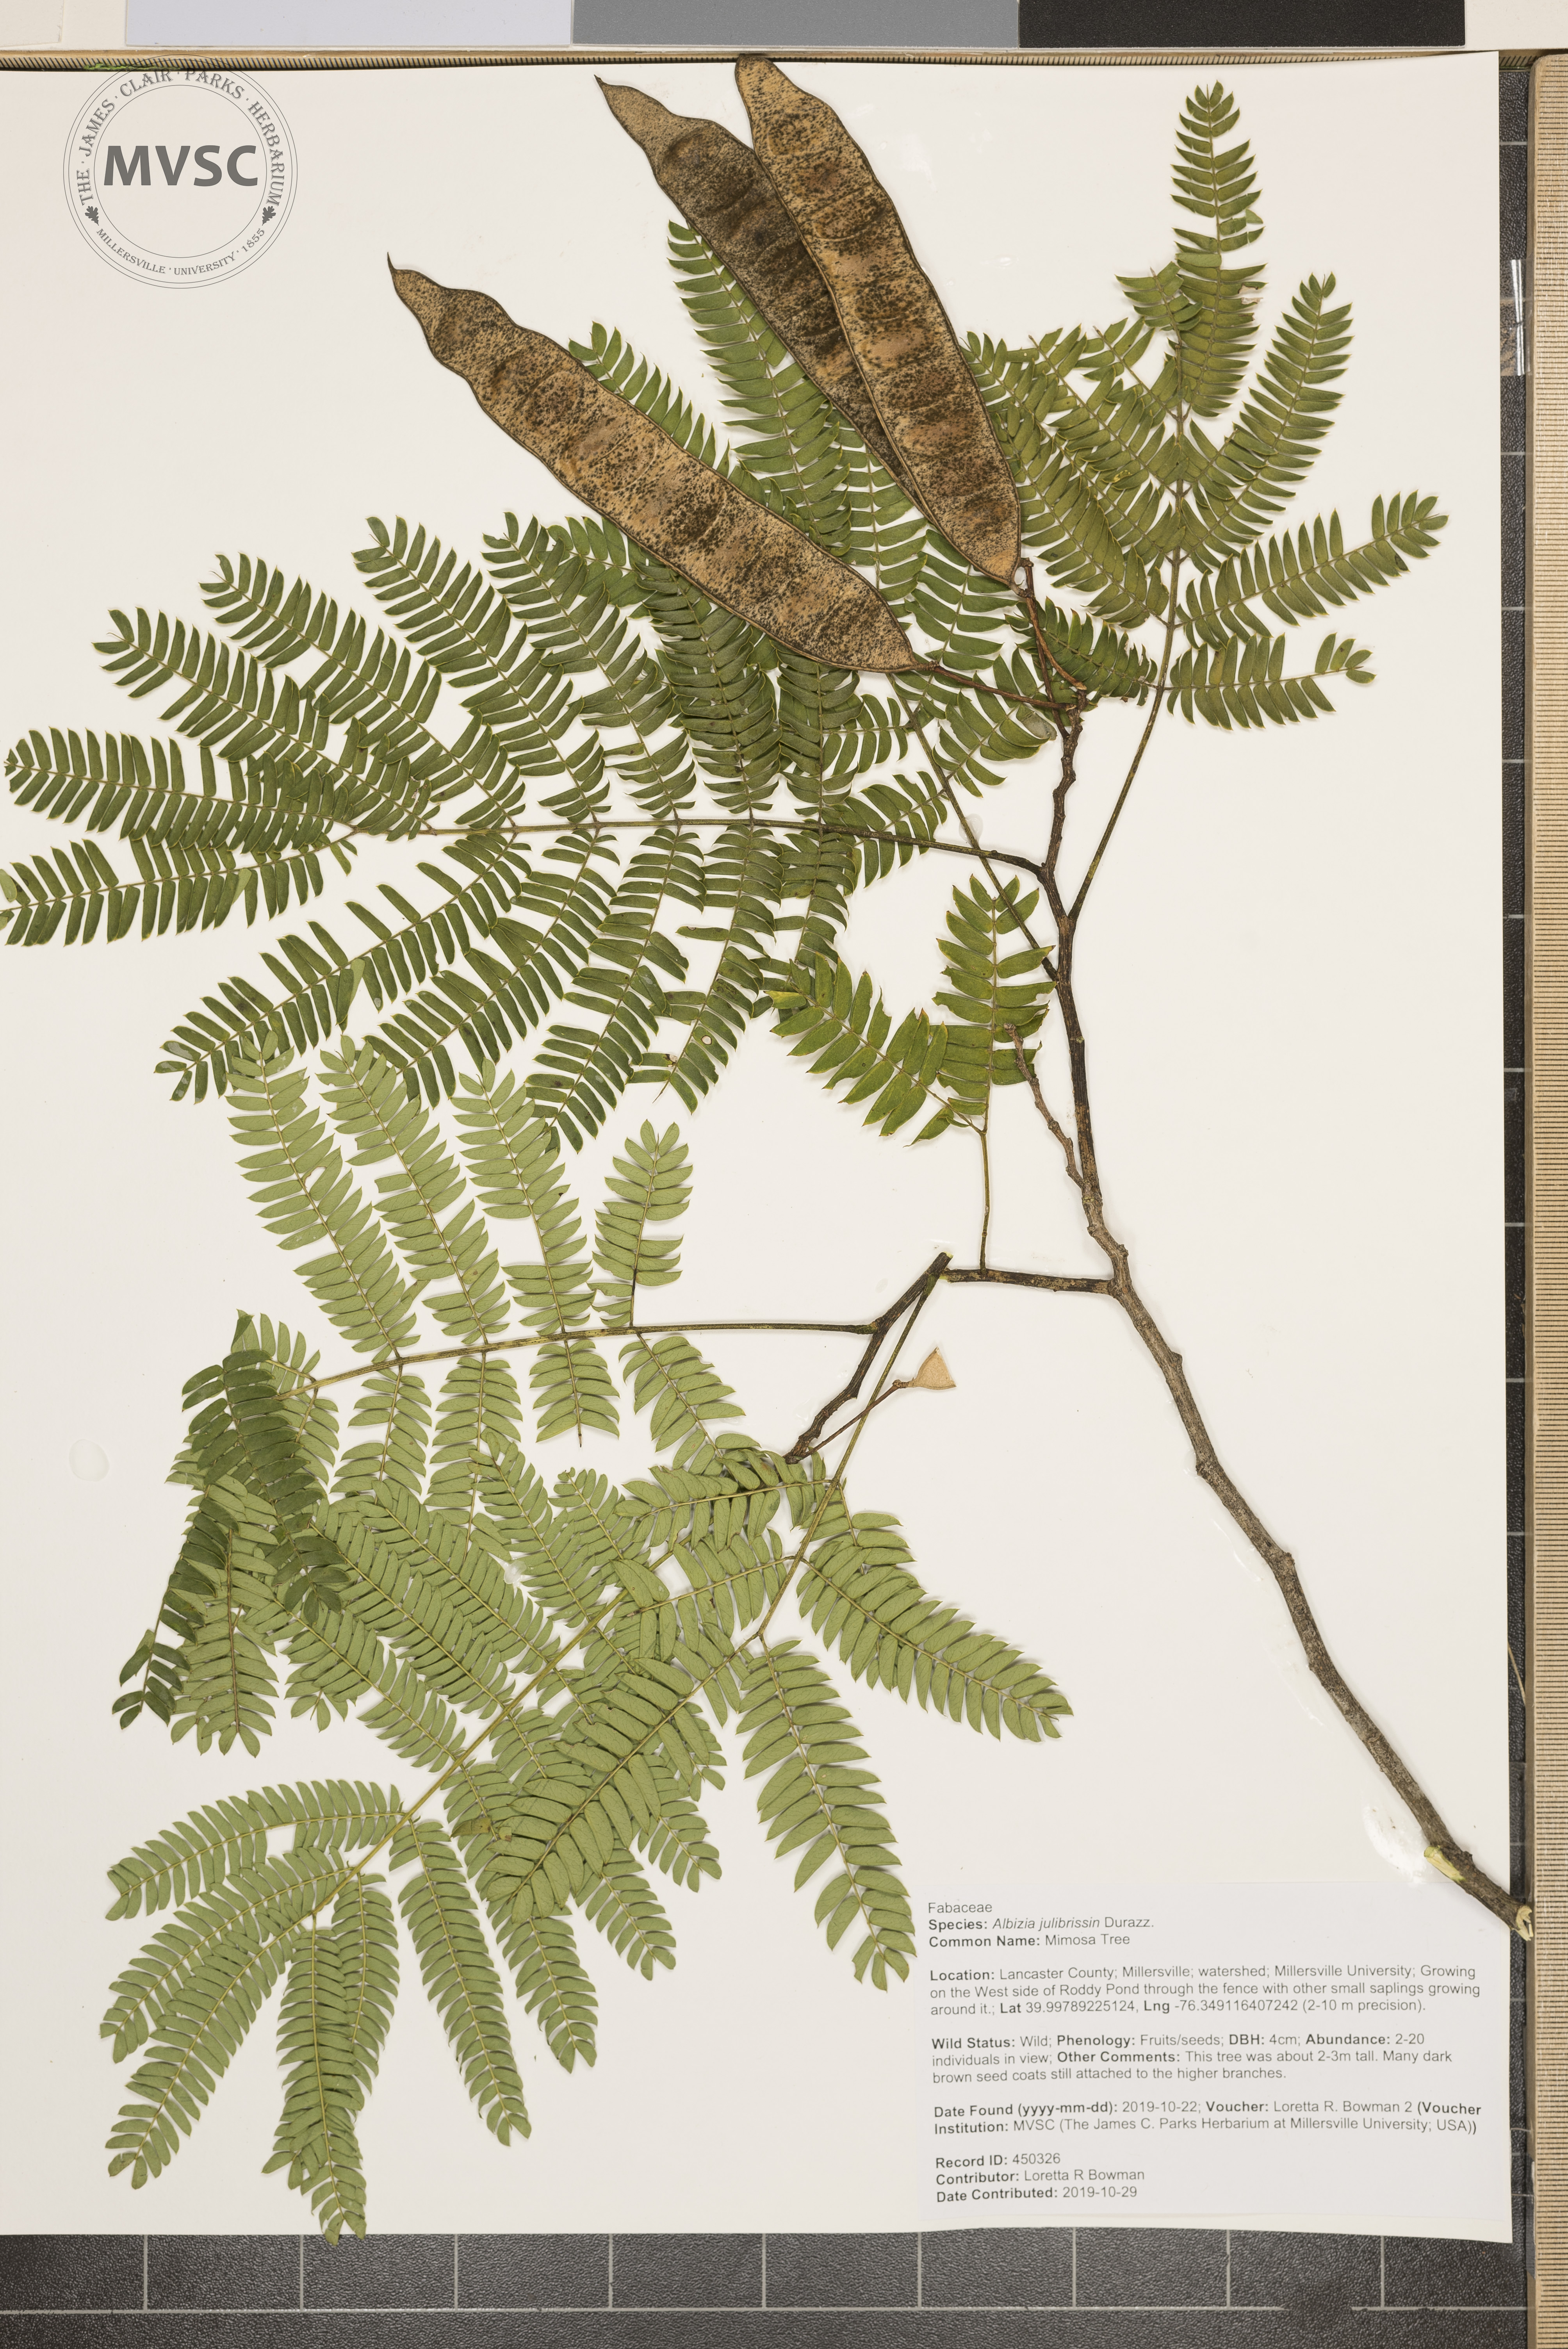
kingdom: Plantae
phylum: Tracheophyta
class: Magnoliopsida
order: Fabales
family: Fabaceae
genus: Albizia
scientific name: Albizia julibrissin
